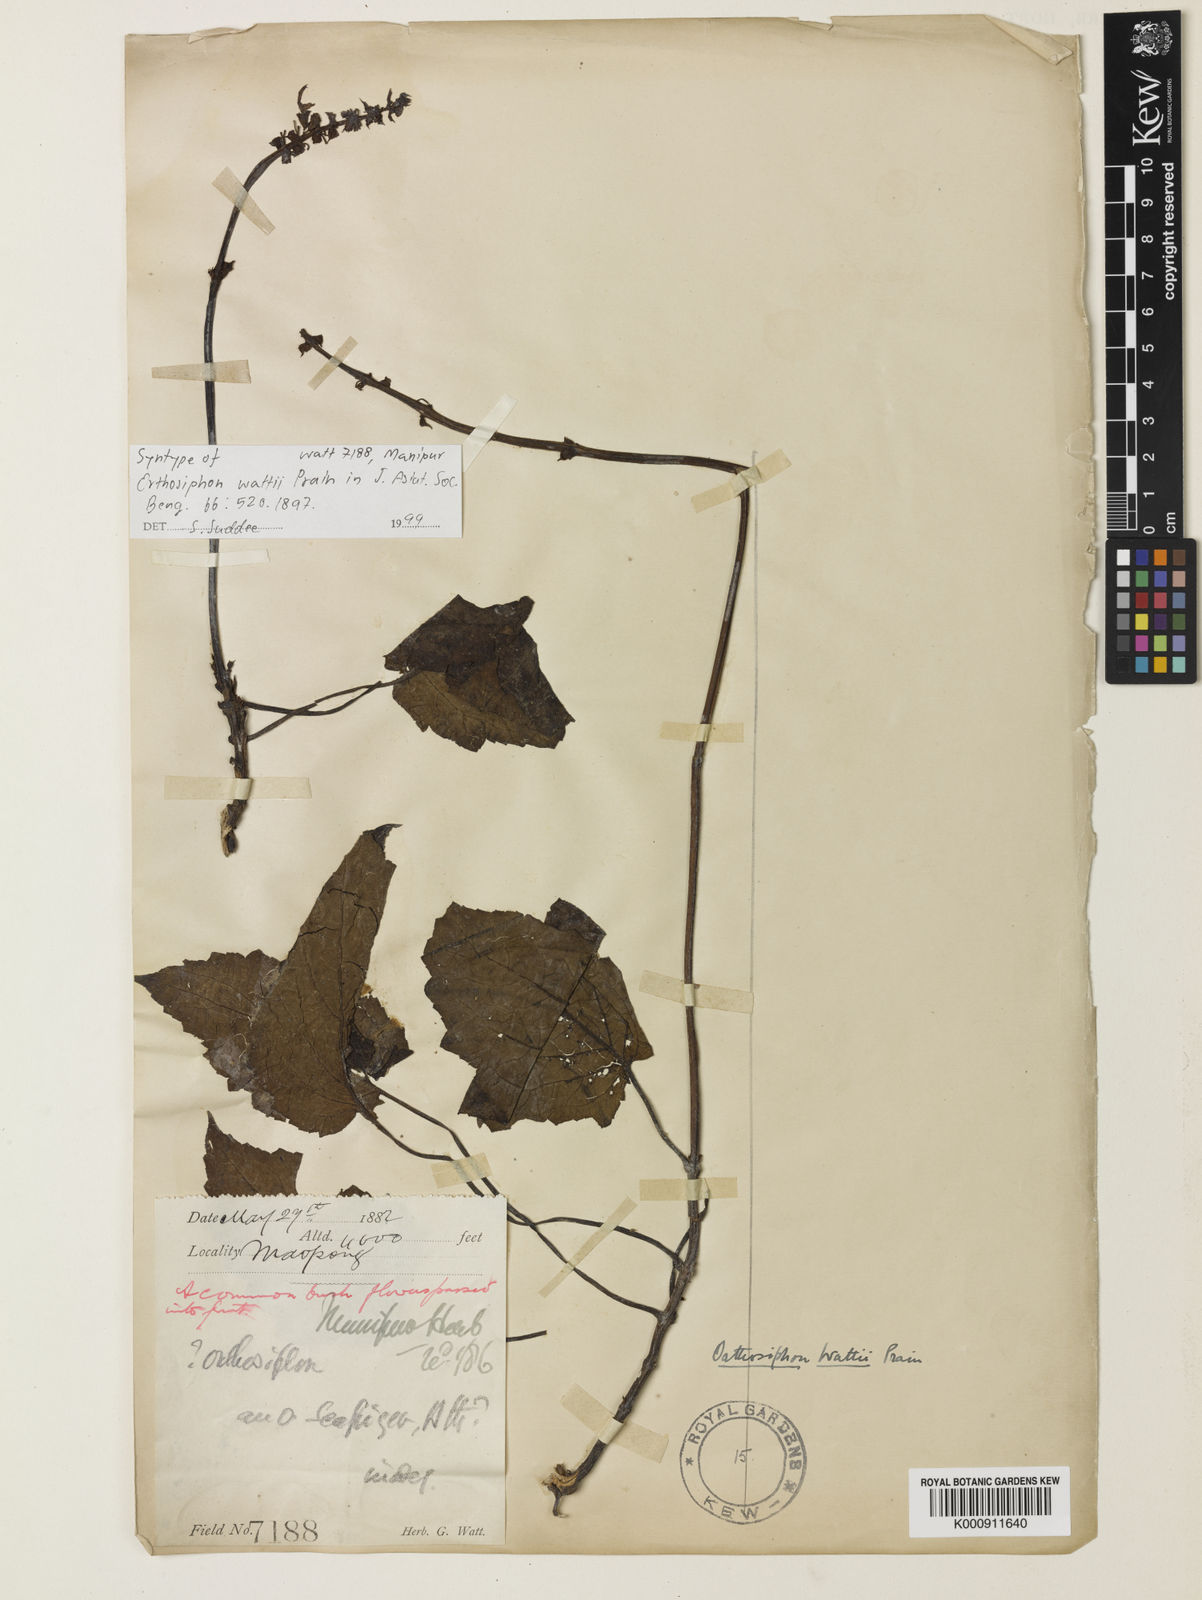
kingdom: Plantae
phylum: Tracheophyta
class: Magnoliopsida
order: Lamiales
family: Lamiaceae
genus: Orthosiphon
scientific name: Orthosiphon wattii
